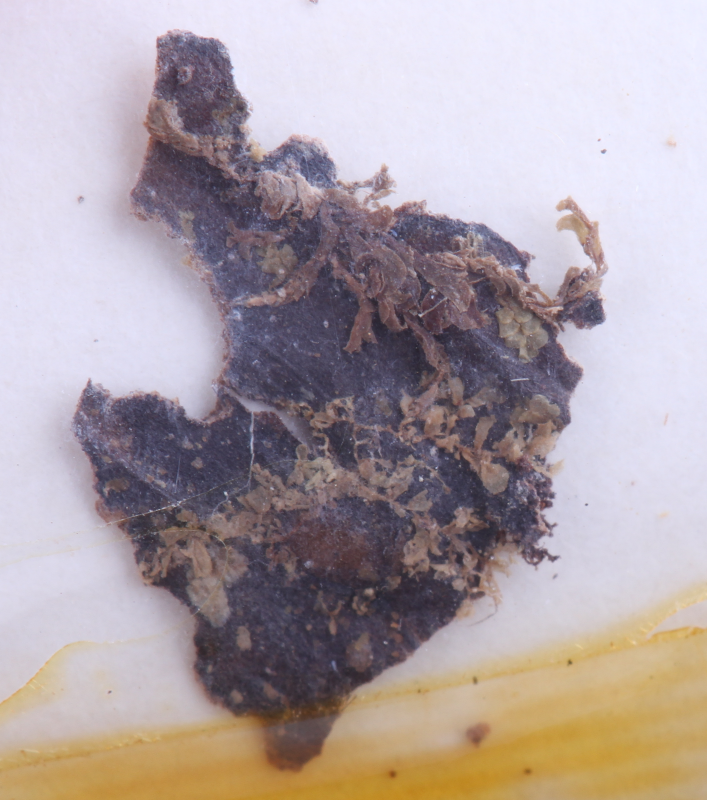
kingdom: Plantae
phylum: Marchantiophyta
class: Jungermanniopsida
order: Porellales
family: Lejeuneaceae
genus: Cololejeunea
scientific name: Cololejeunea obliqua
